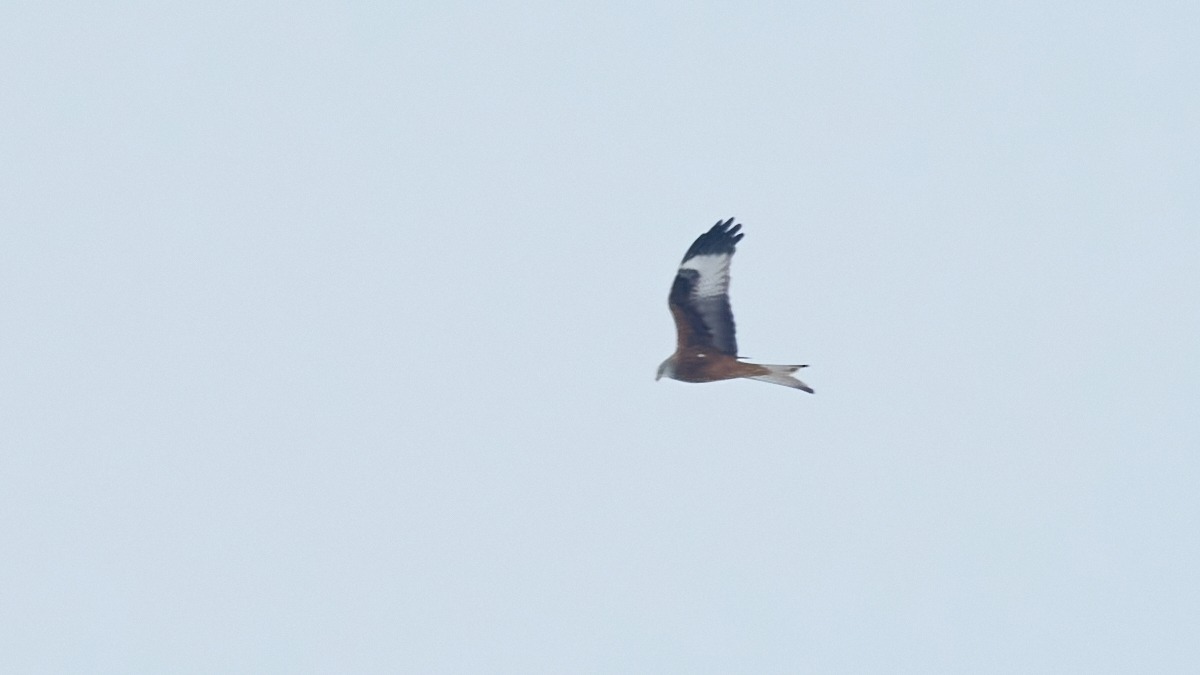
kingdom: Animalia
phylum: Chordata
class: Aves
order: Accipitriformes
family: Accipitridae
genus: Milvus
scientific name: Milvus milvus
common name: Rød glente
